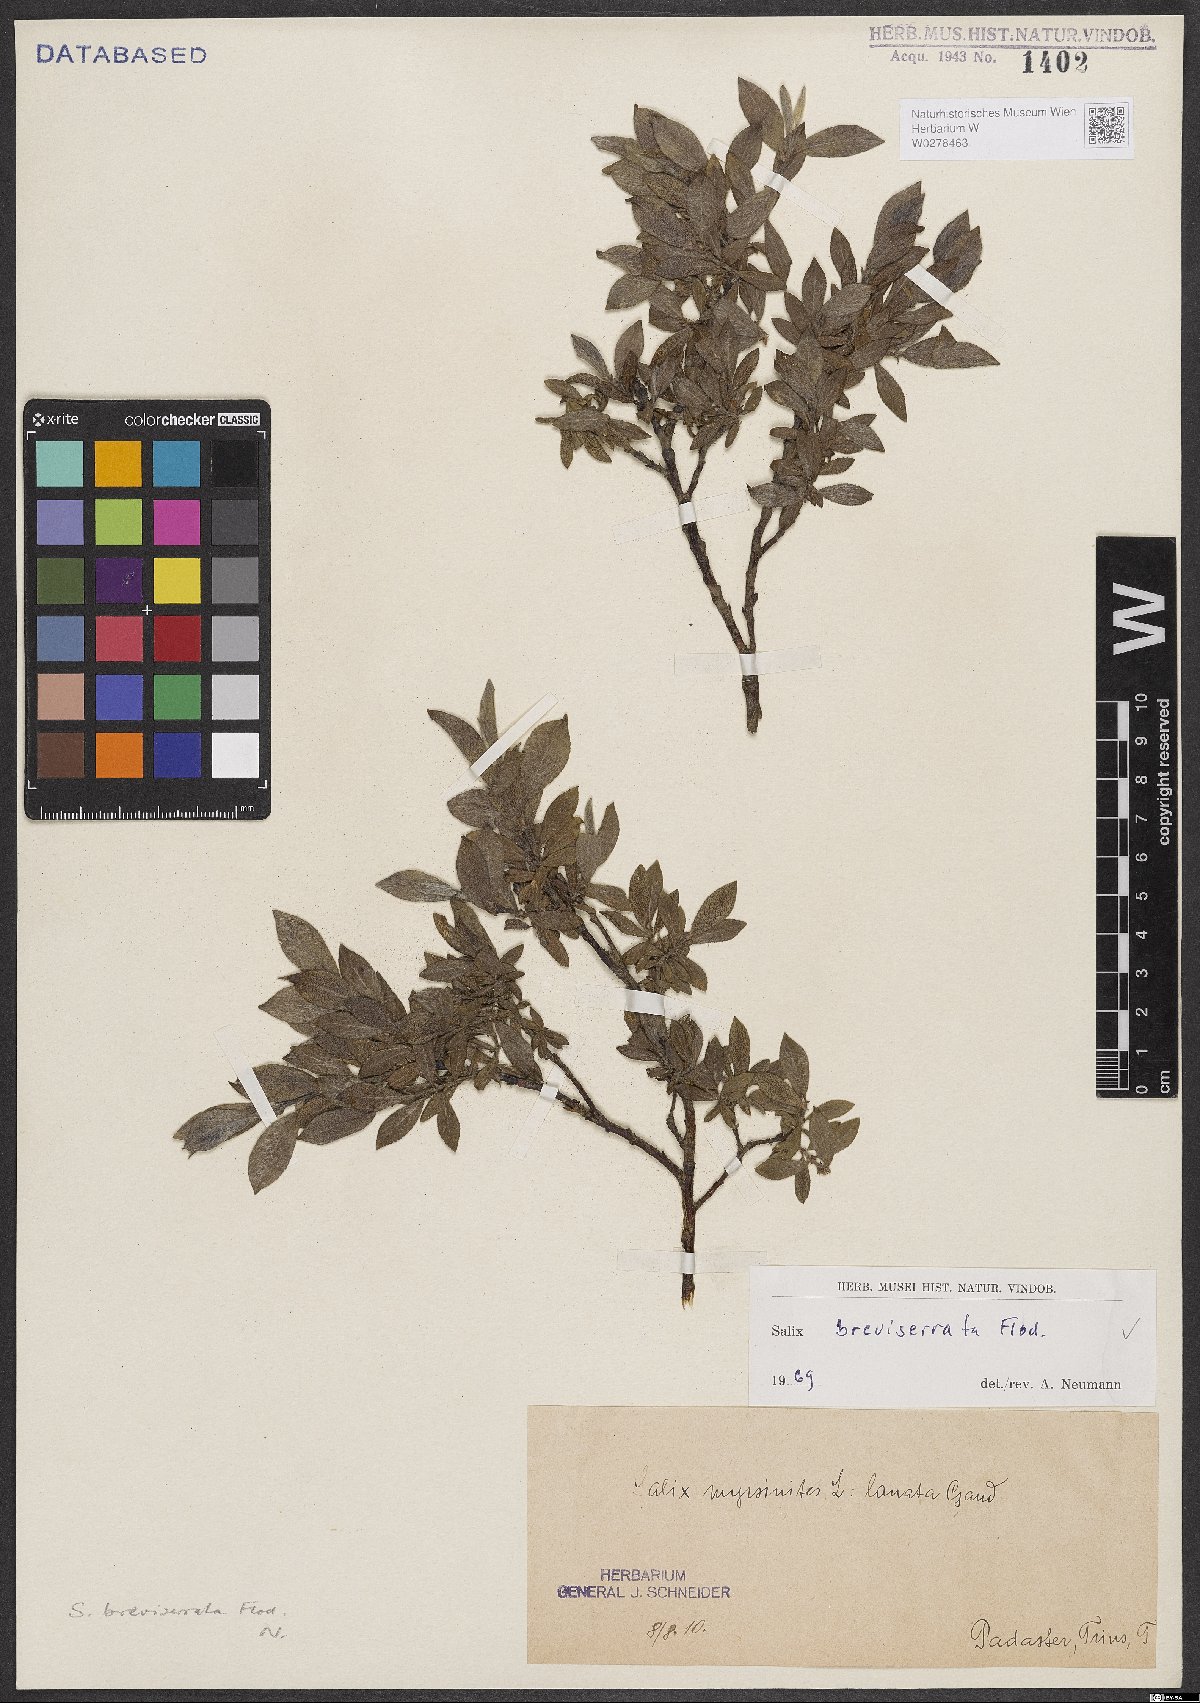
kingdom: Plantae
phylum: Tracheophyta
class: Magnoliopsida
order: Malpighiales
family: Salicaceae
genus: Salix
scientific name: Salix breviserrata
